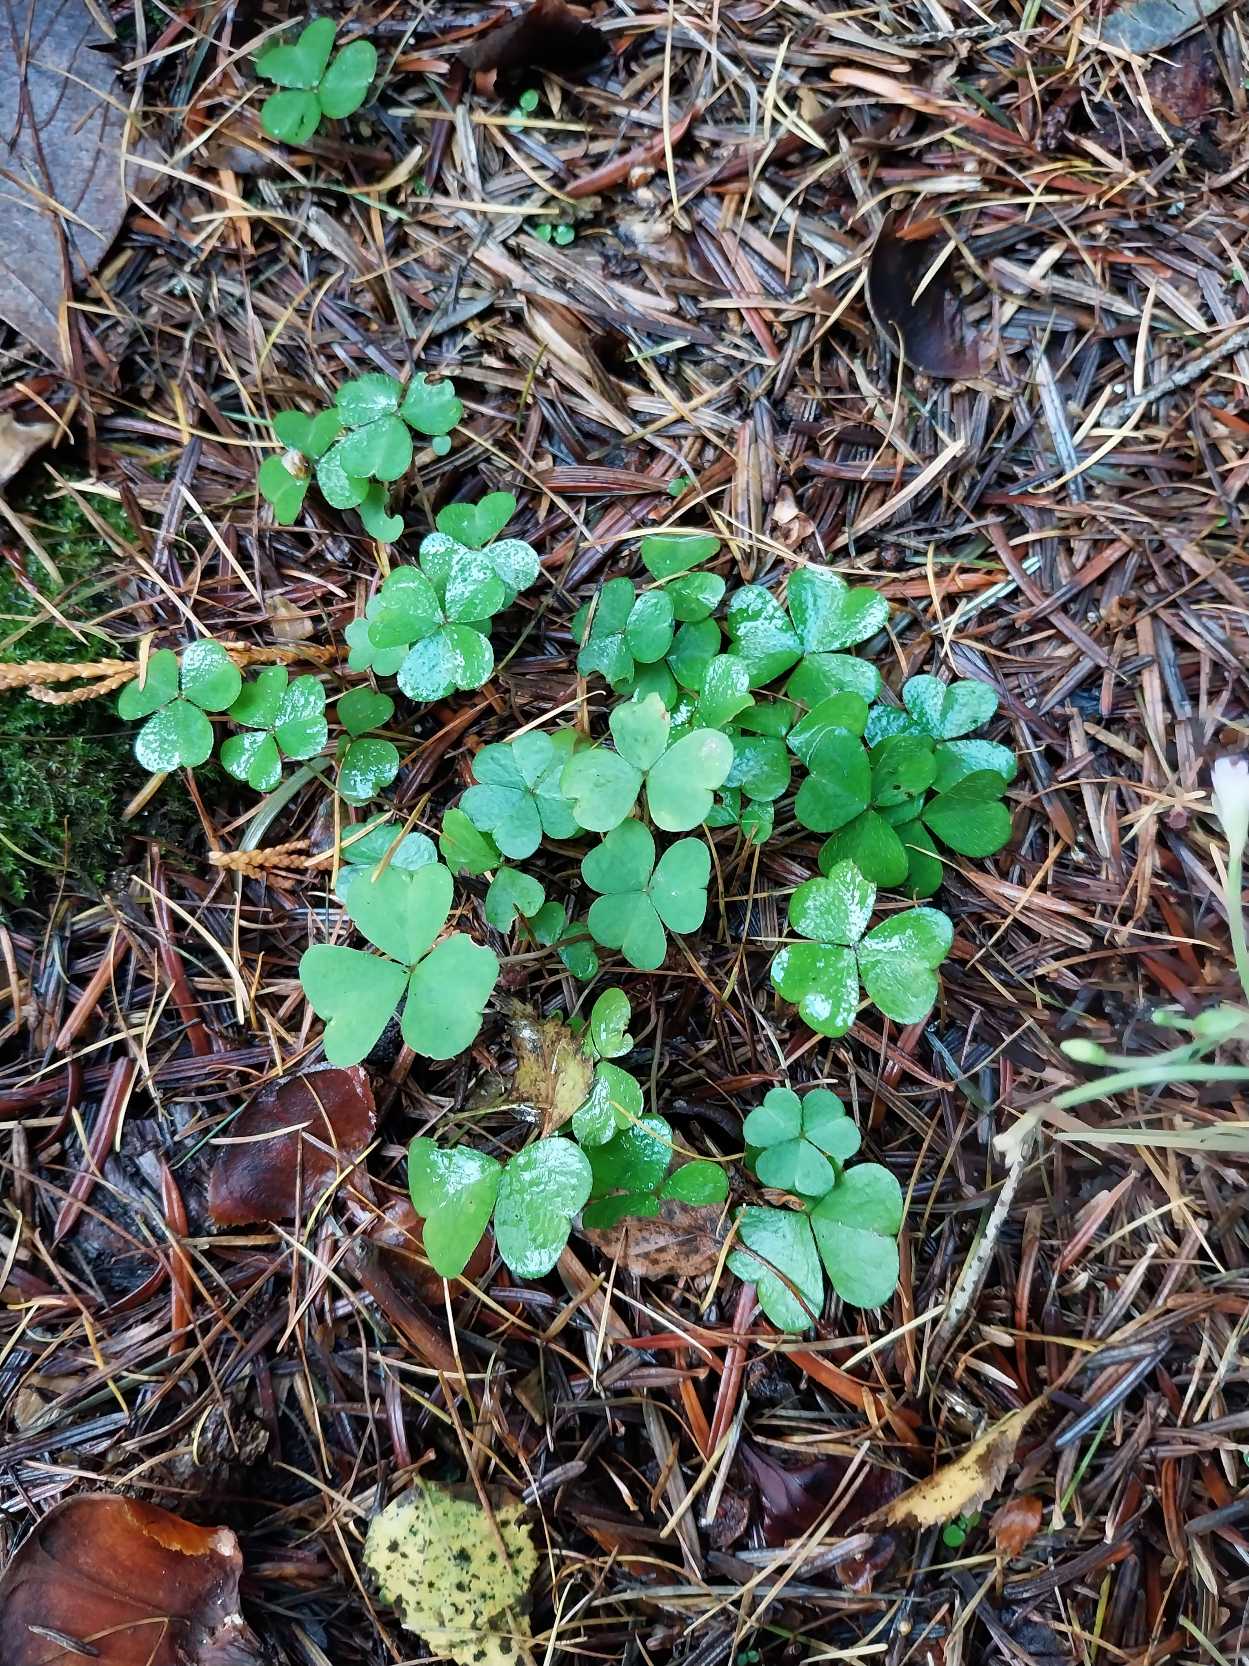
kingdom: Plantae
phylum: Tracheophyta
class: Magnoliopsida
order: Oxalidales
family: Oxalidaceae
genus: Oxalis
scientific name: Oxalis acetosella
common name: Skovsyre
